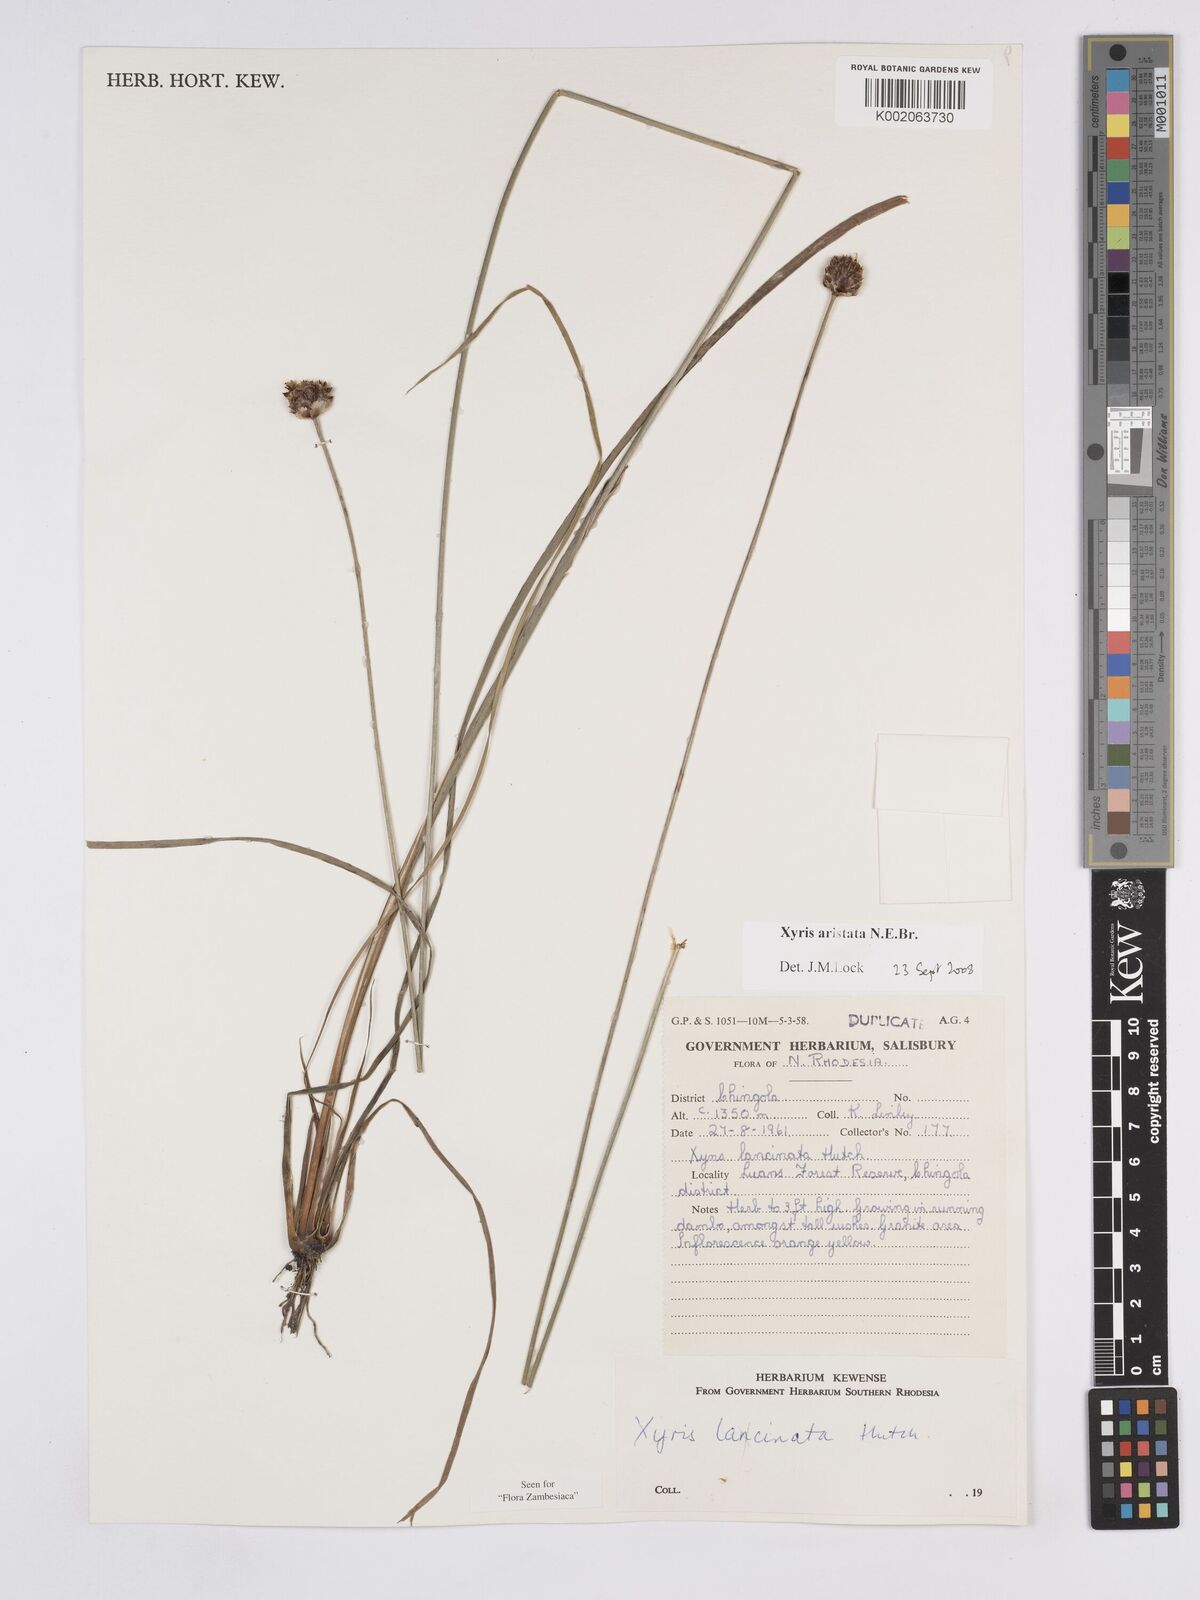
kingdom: Plantae
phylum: Tracheophyta
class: Liliopsida
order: Poales
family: Xyridaceae
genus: Xyris
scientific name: Xyris aristata
